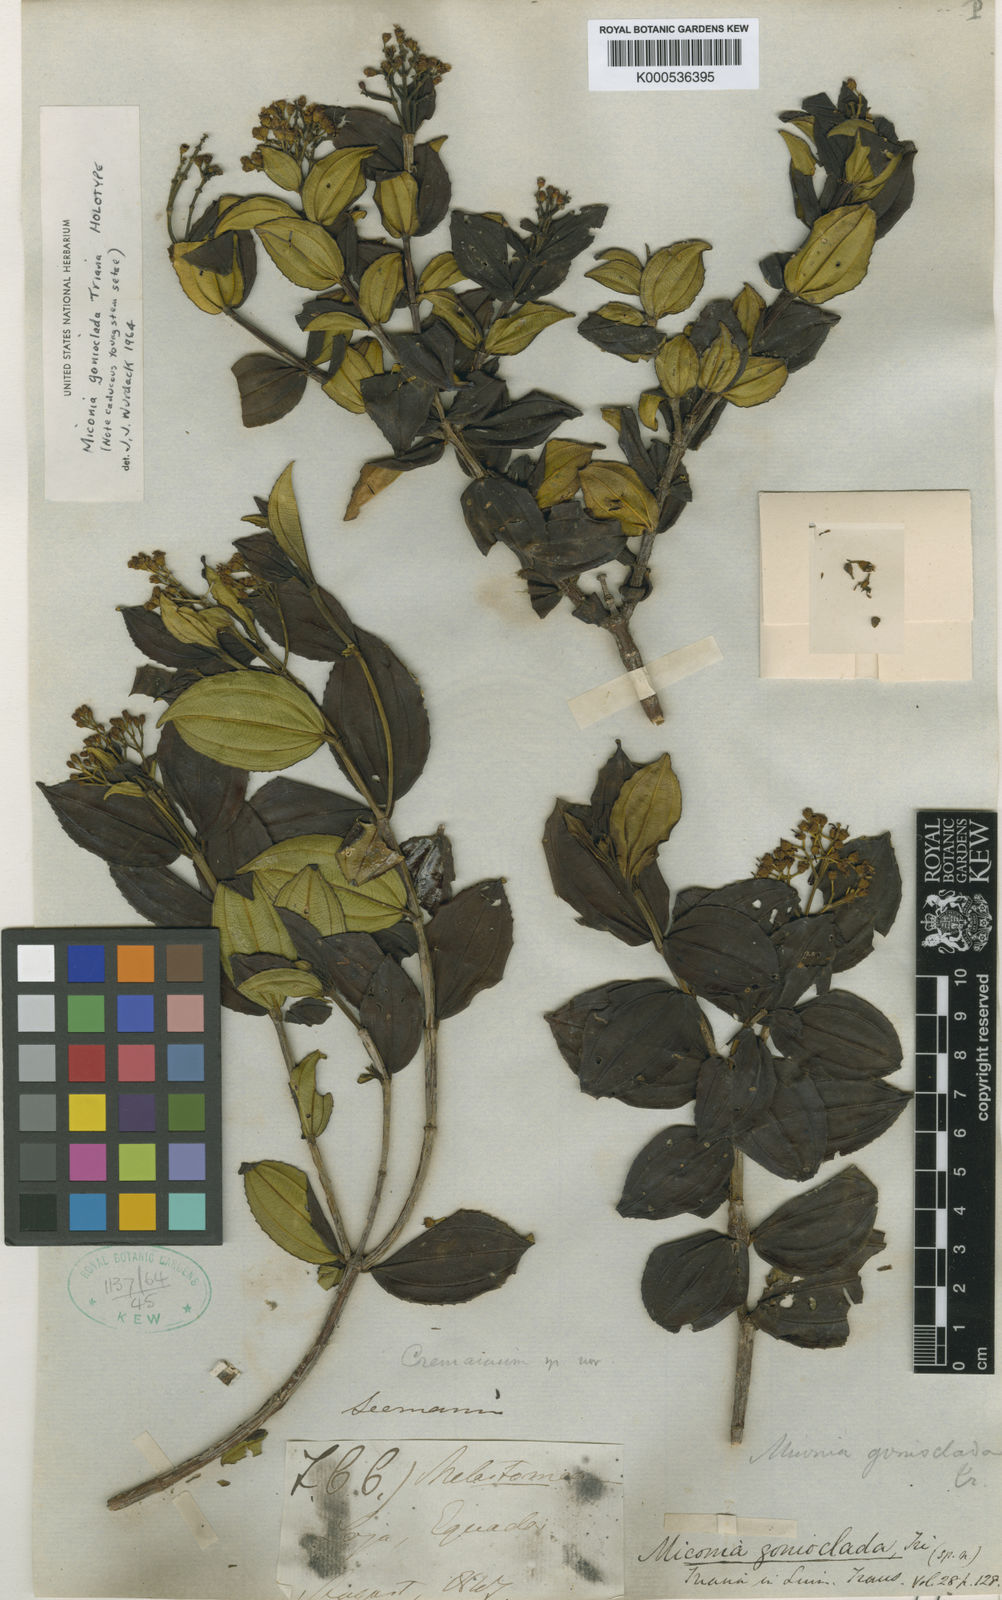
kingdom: Plantae
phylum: Tracheophyta
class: Magnoliopsida
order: Myrtales
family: Melastomataceae
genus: Miconia
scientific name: Miconia gonioclada
